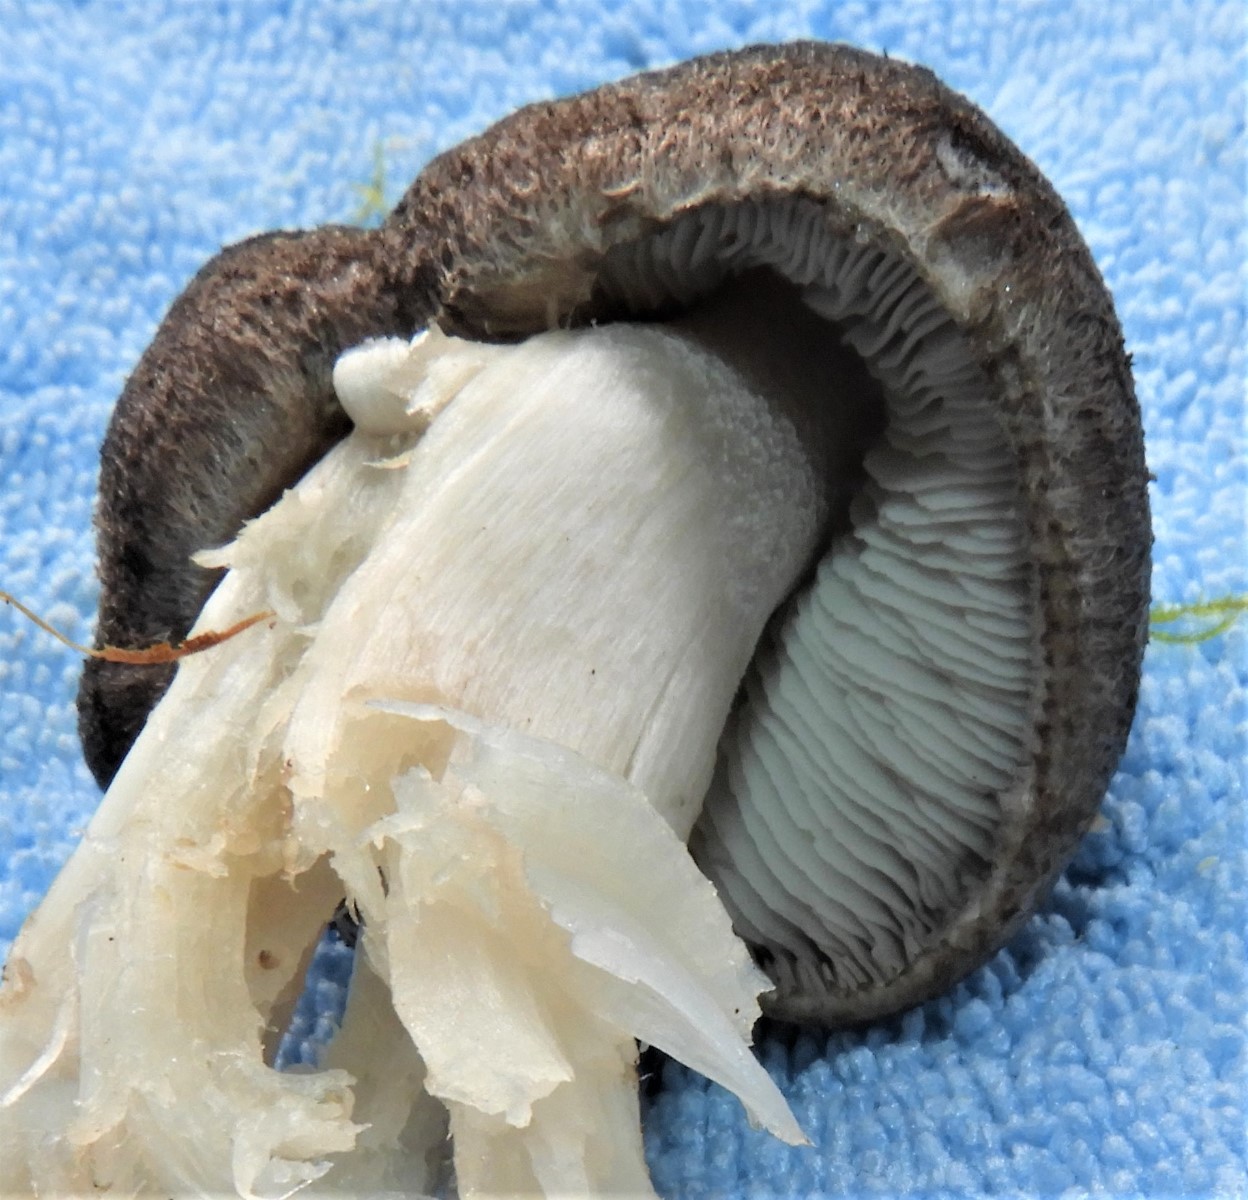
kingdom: Fungi
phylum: Basidiomycota
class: Agaricomycetes
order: Agaricales
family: Tricholomataceae
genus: Tricholoma
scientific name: Tricholoma terreum
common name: jordfarvet ridderhat
